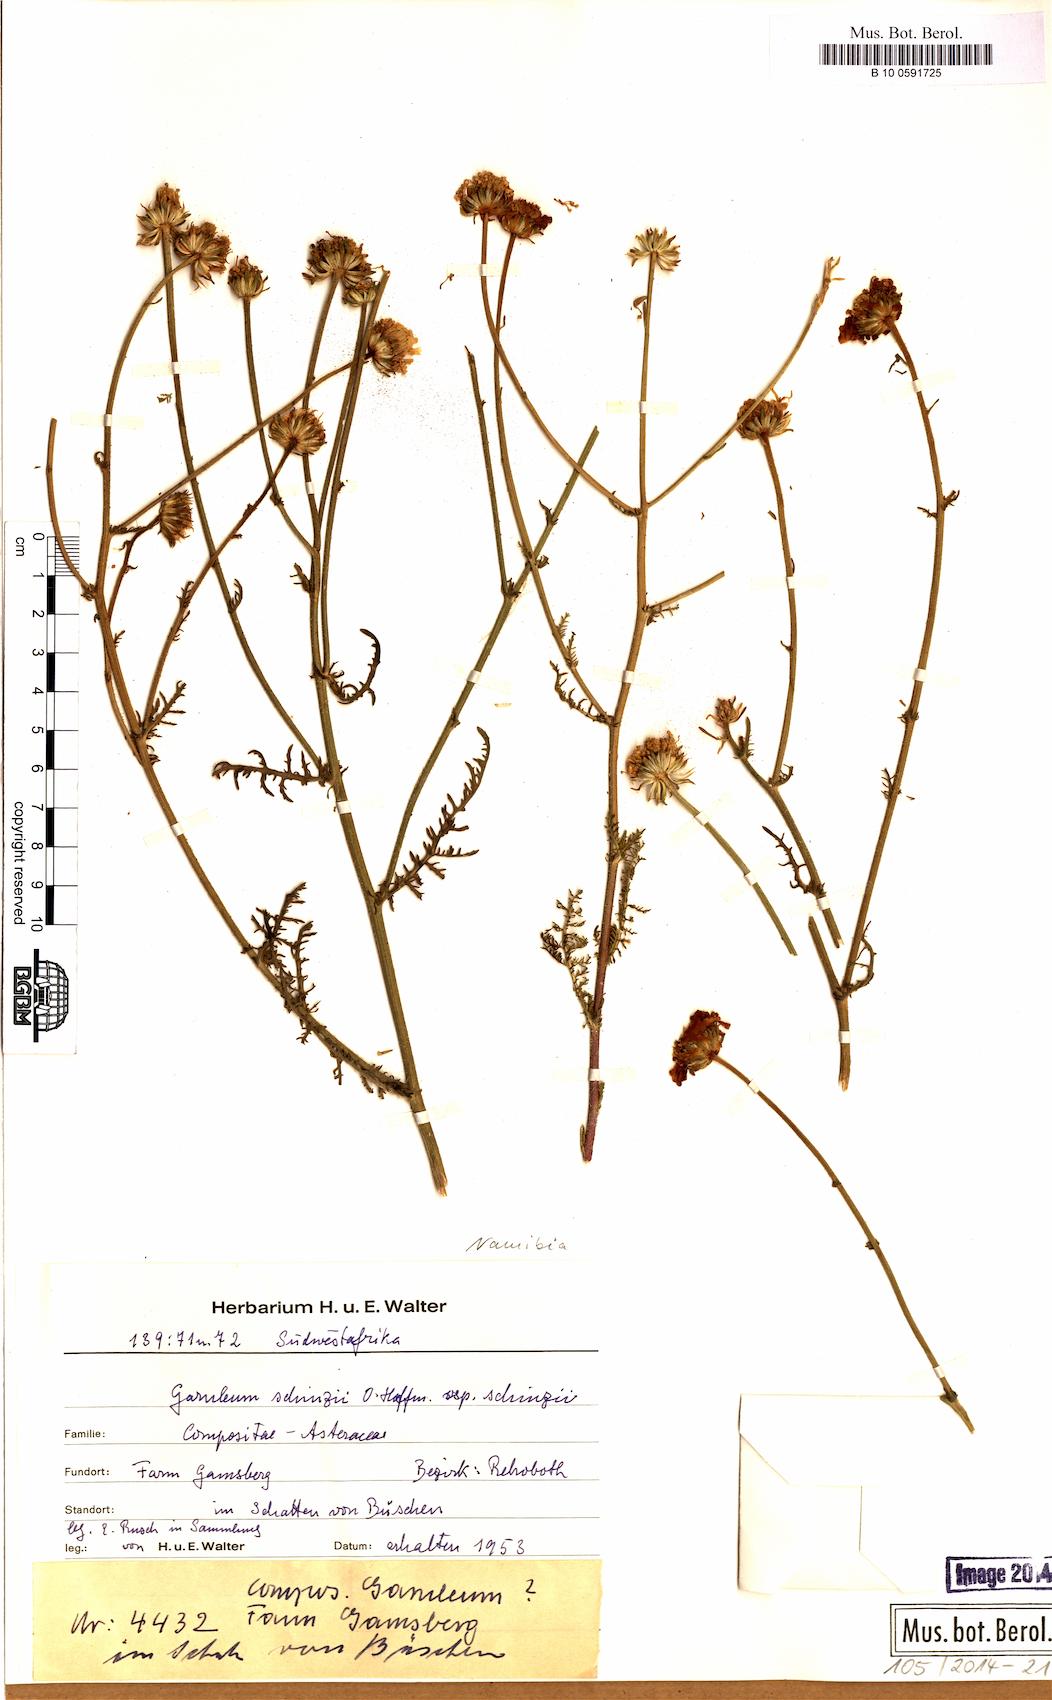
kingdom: Plantae
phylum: Tracheophyta
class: Magnoliopsida
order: Asterales
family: Asteraceae
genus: Garuleum
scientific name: Garuleum schinzii
